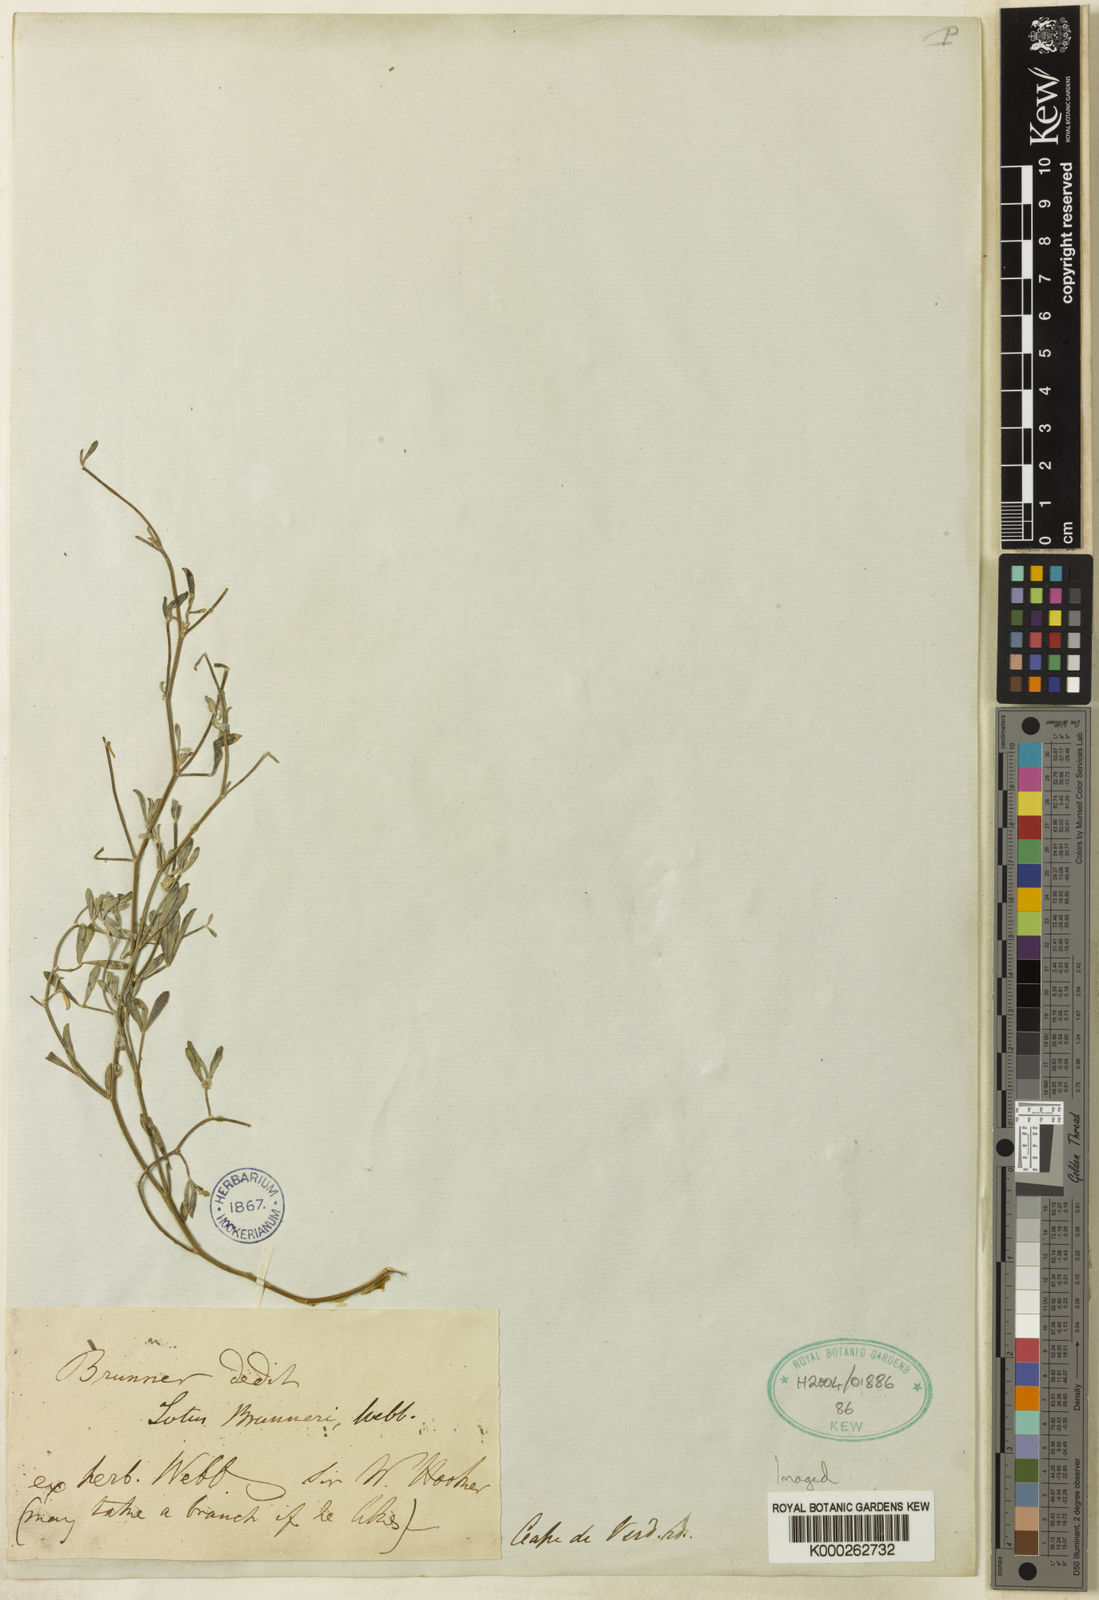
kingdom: Plantae
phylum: Tracheophyta
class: Magnoliopsida
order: Fabales
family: Fabaceae
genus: Lotus
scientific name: Lotus brunneri
